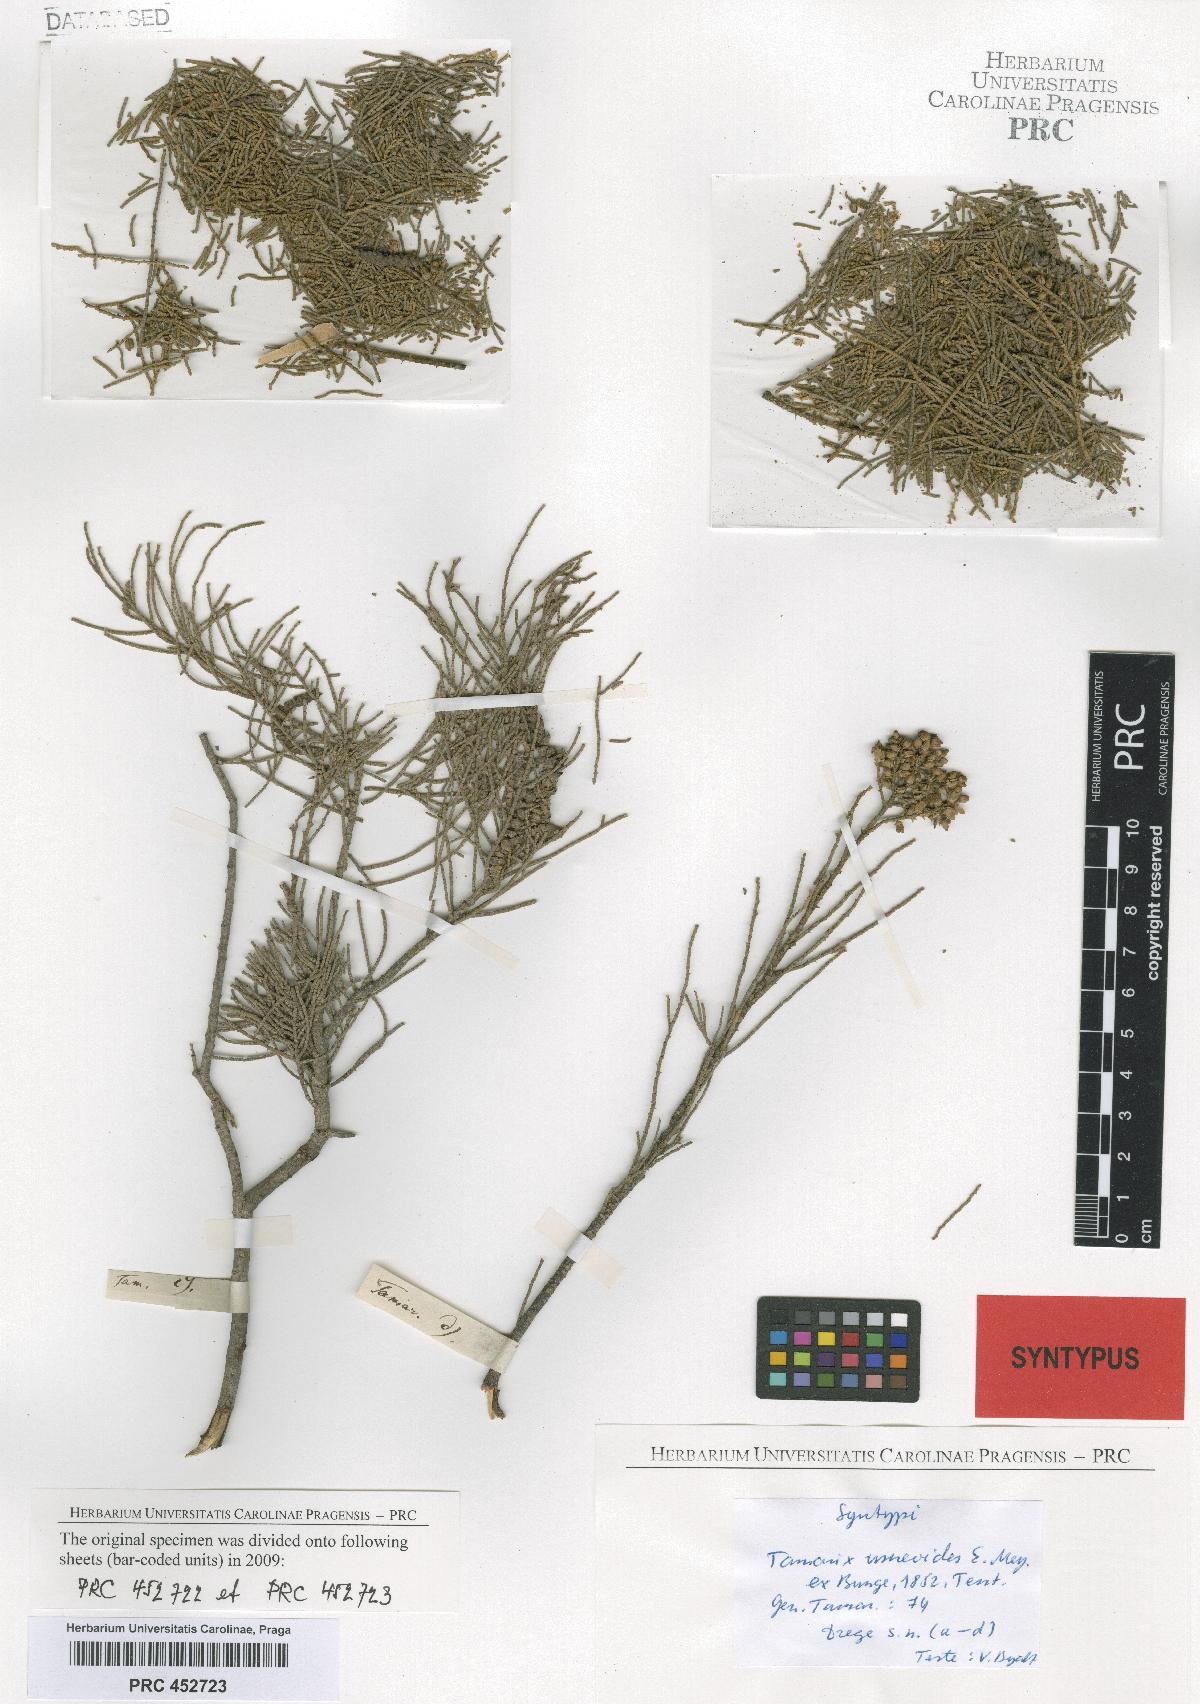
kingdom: Plantae
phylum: Tracheophyta
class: Magnoliopsida
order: Caryophyllales
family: Tamaricaceae
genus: Tamarix
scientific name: Tamarix usneoides
